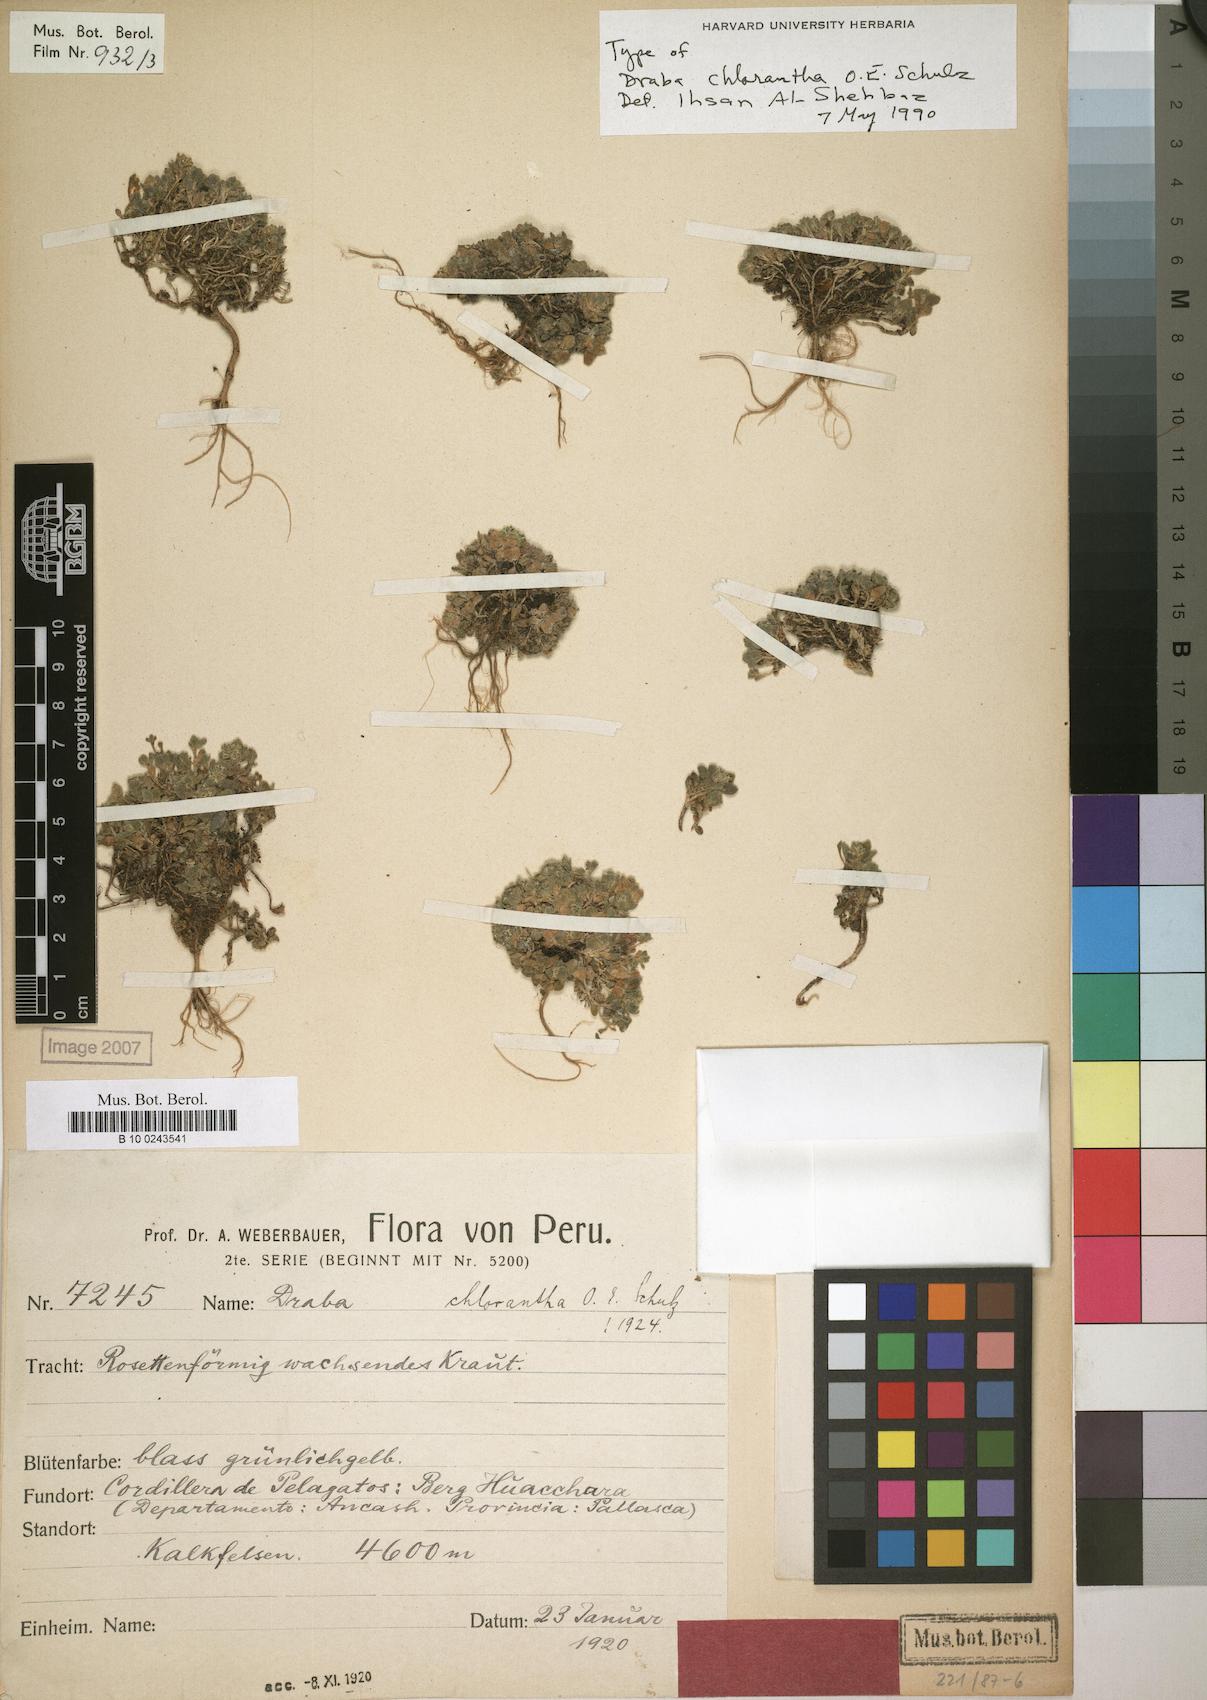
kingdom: Plantae
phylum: Tracheophyta
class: Magnoliopsida
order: Brassicales
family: Brassicaceae
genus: Draba
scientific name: Draba cryptantha
